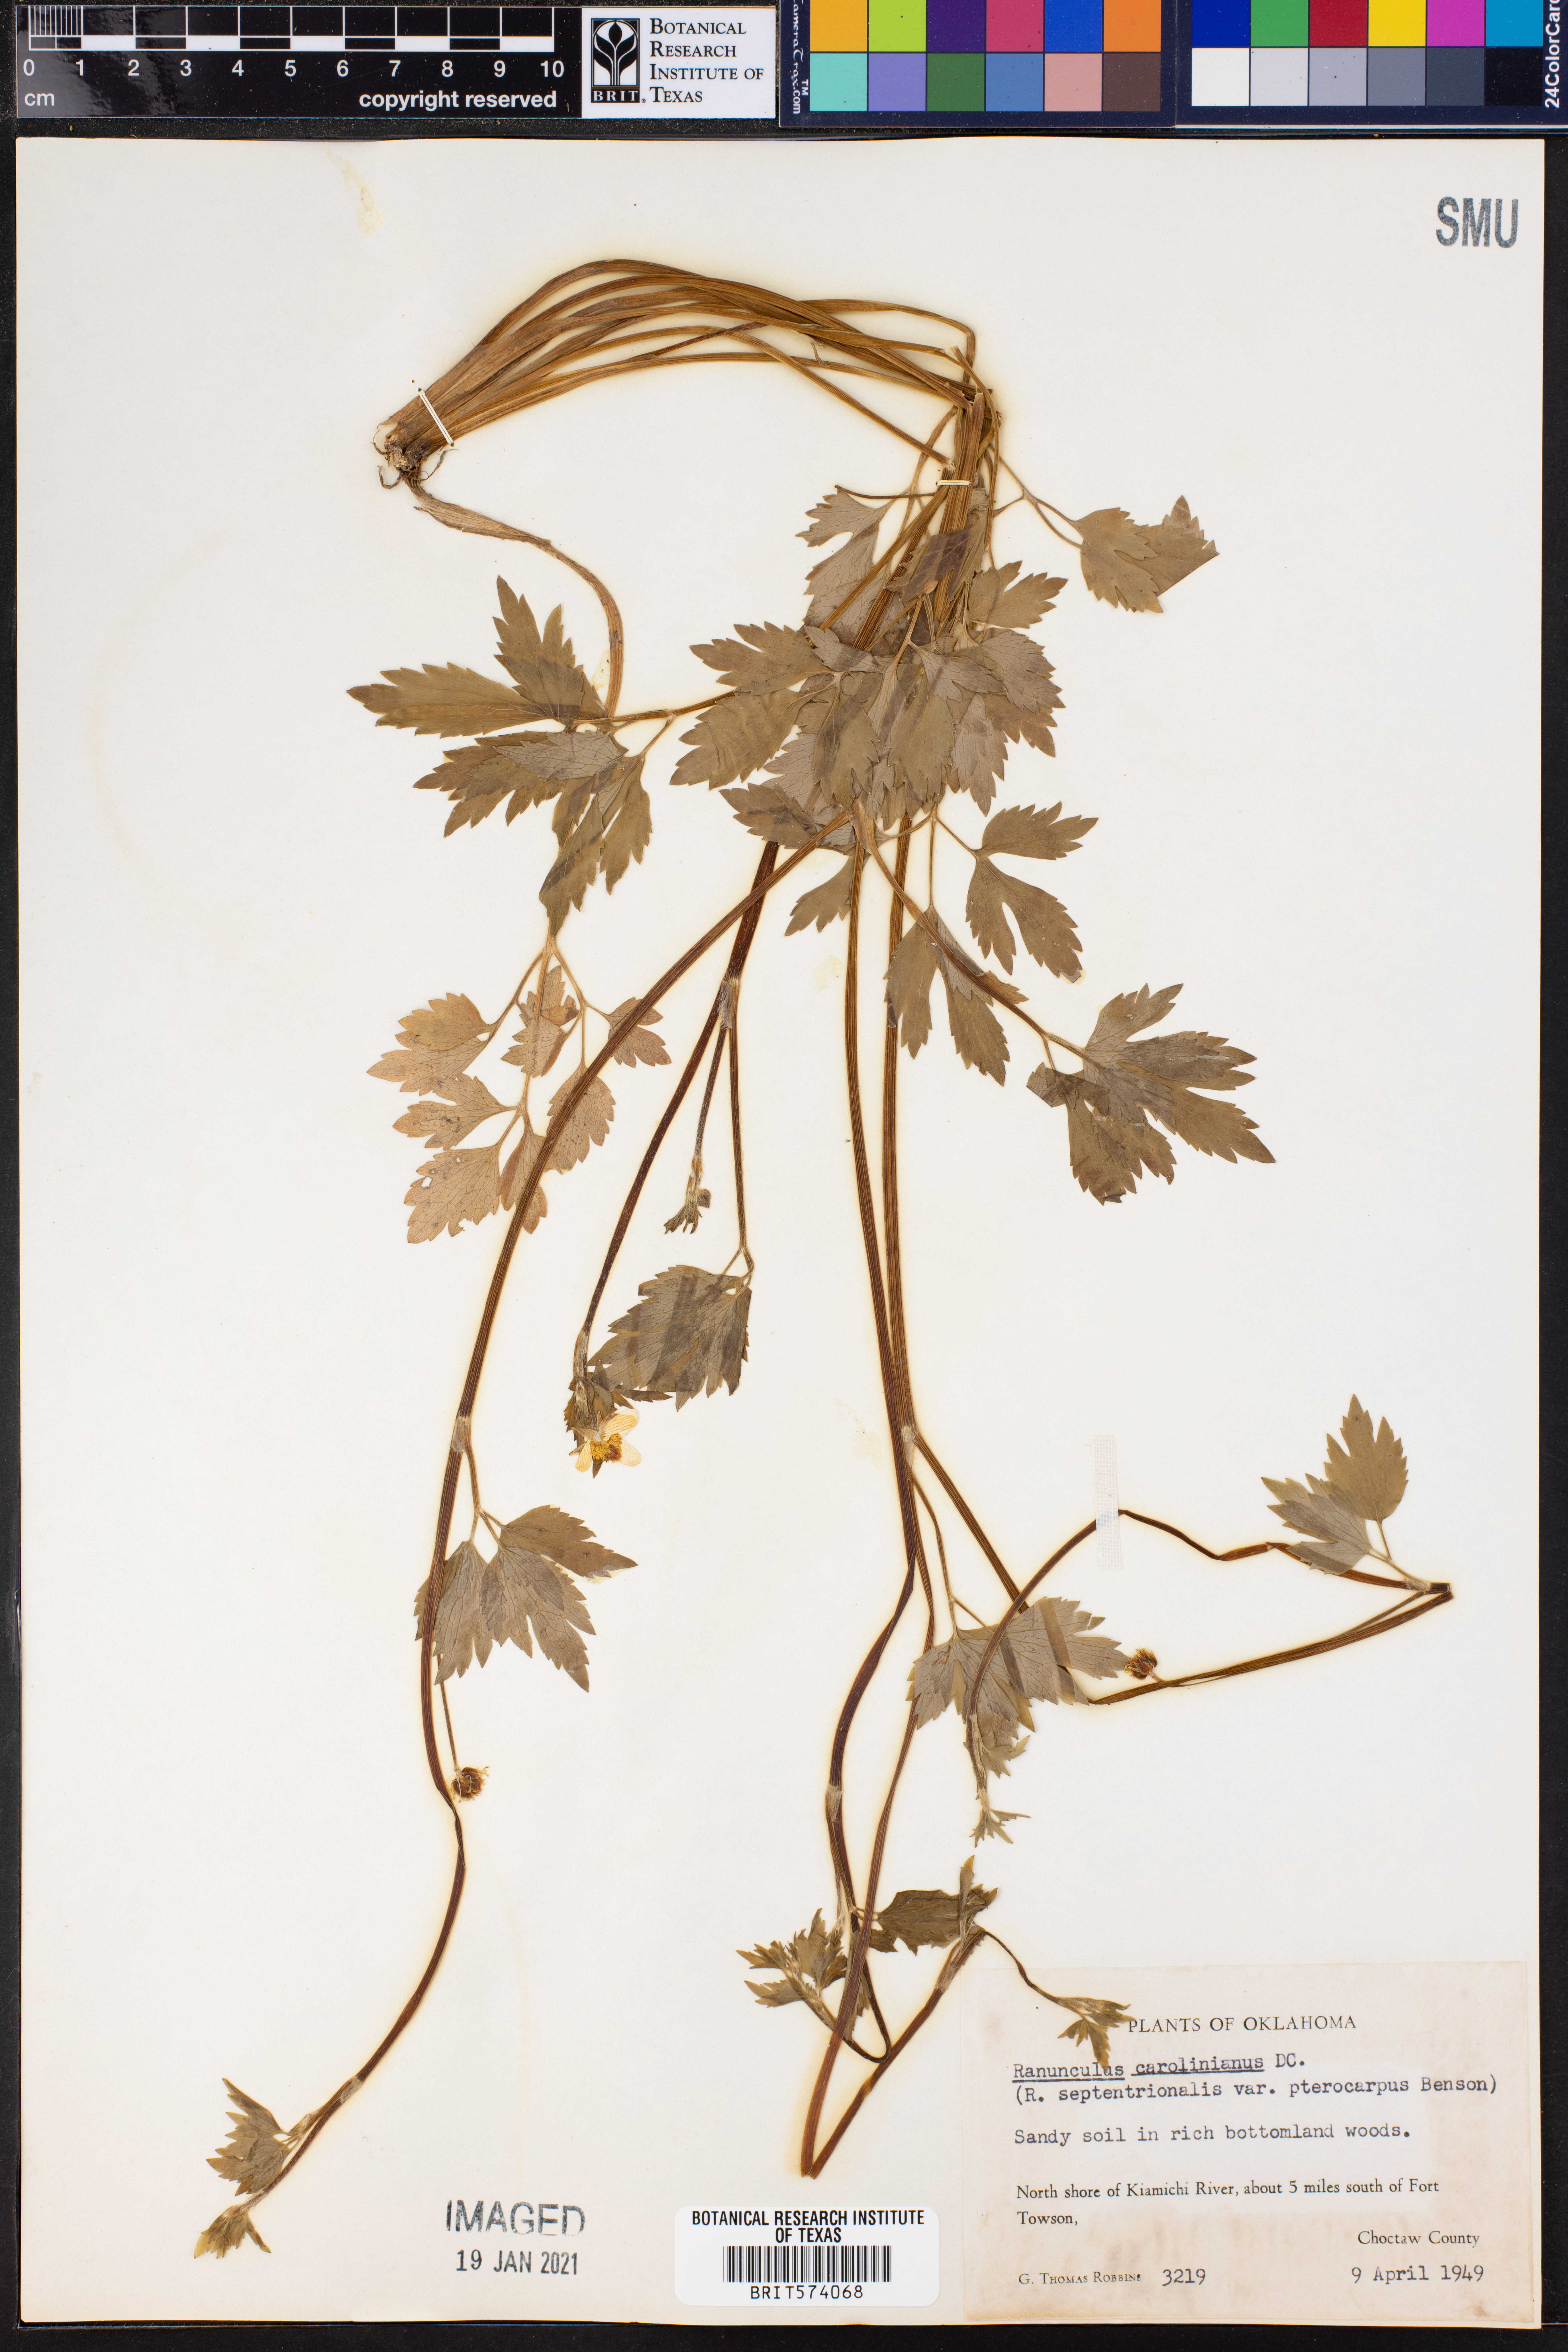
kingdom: Plantae
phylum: Tracheophyta
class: Magnoliopsida
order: Ranunculales
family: Ranunculaceae
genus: Ranunculus
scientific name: Ranunculus hispidus
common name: Bristly buttercup
